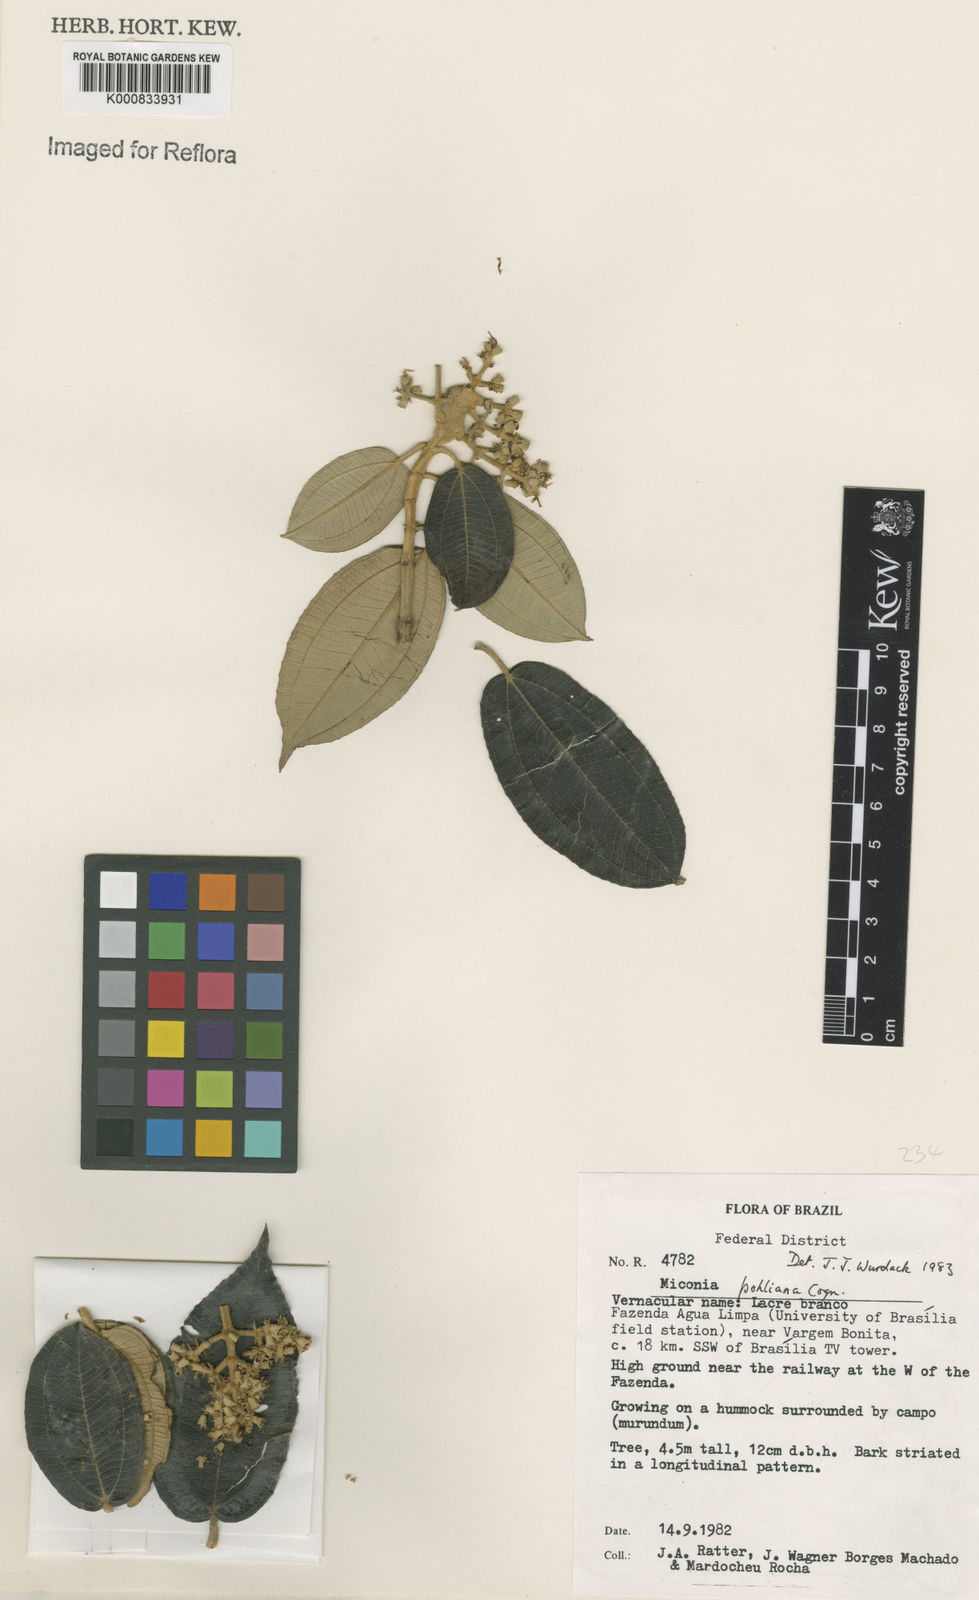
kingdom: Plantae
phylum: Tracheophyta
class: Magnoliopsida
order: Myrtales
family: Melastomataceae
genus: Miconia
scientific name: Miconia leucocarpa
